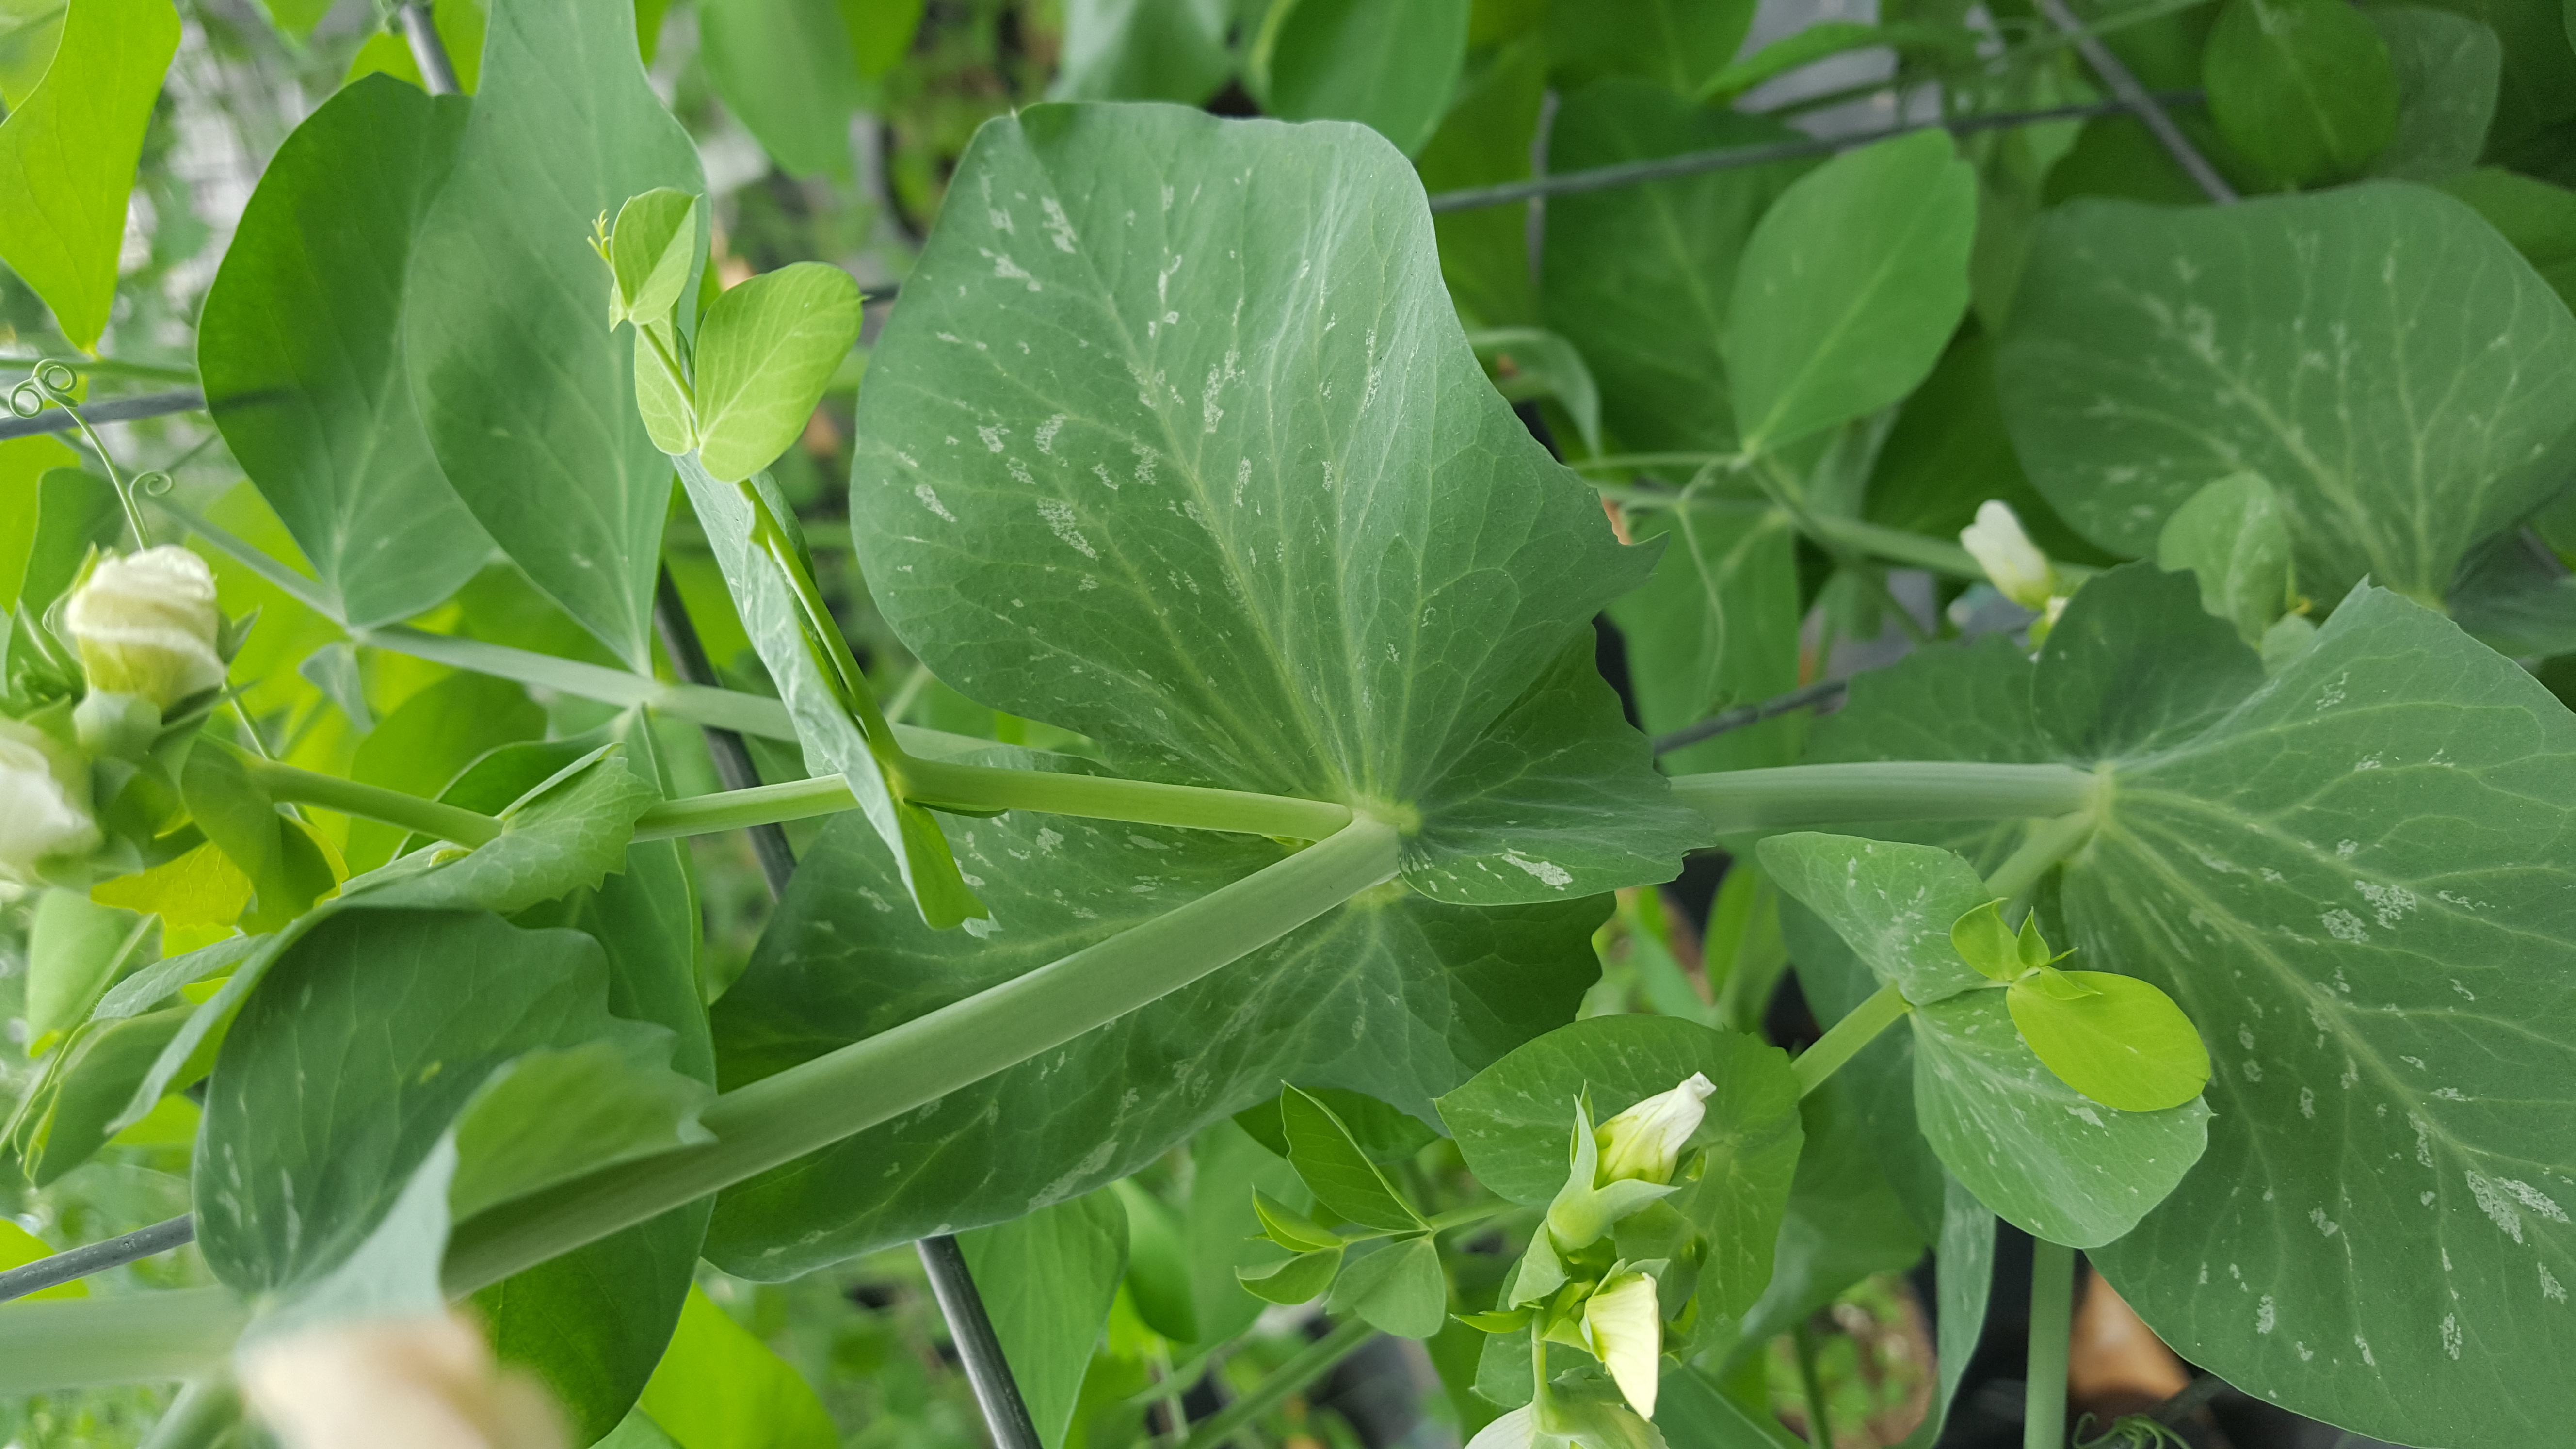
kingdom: Plantae
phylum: Tracheophyta
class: Magnoliopsida
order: Fabales
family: Fabaceae
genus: Lathyrus
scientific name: Lathyrus oleraceus
